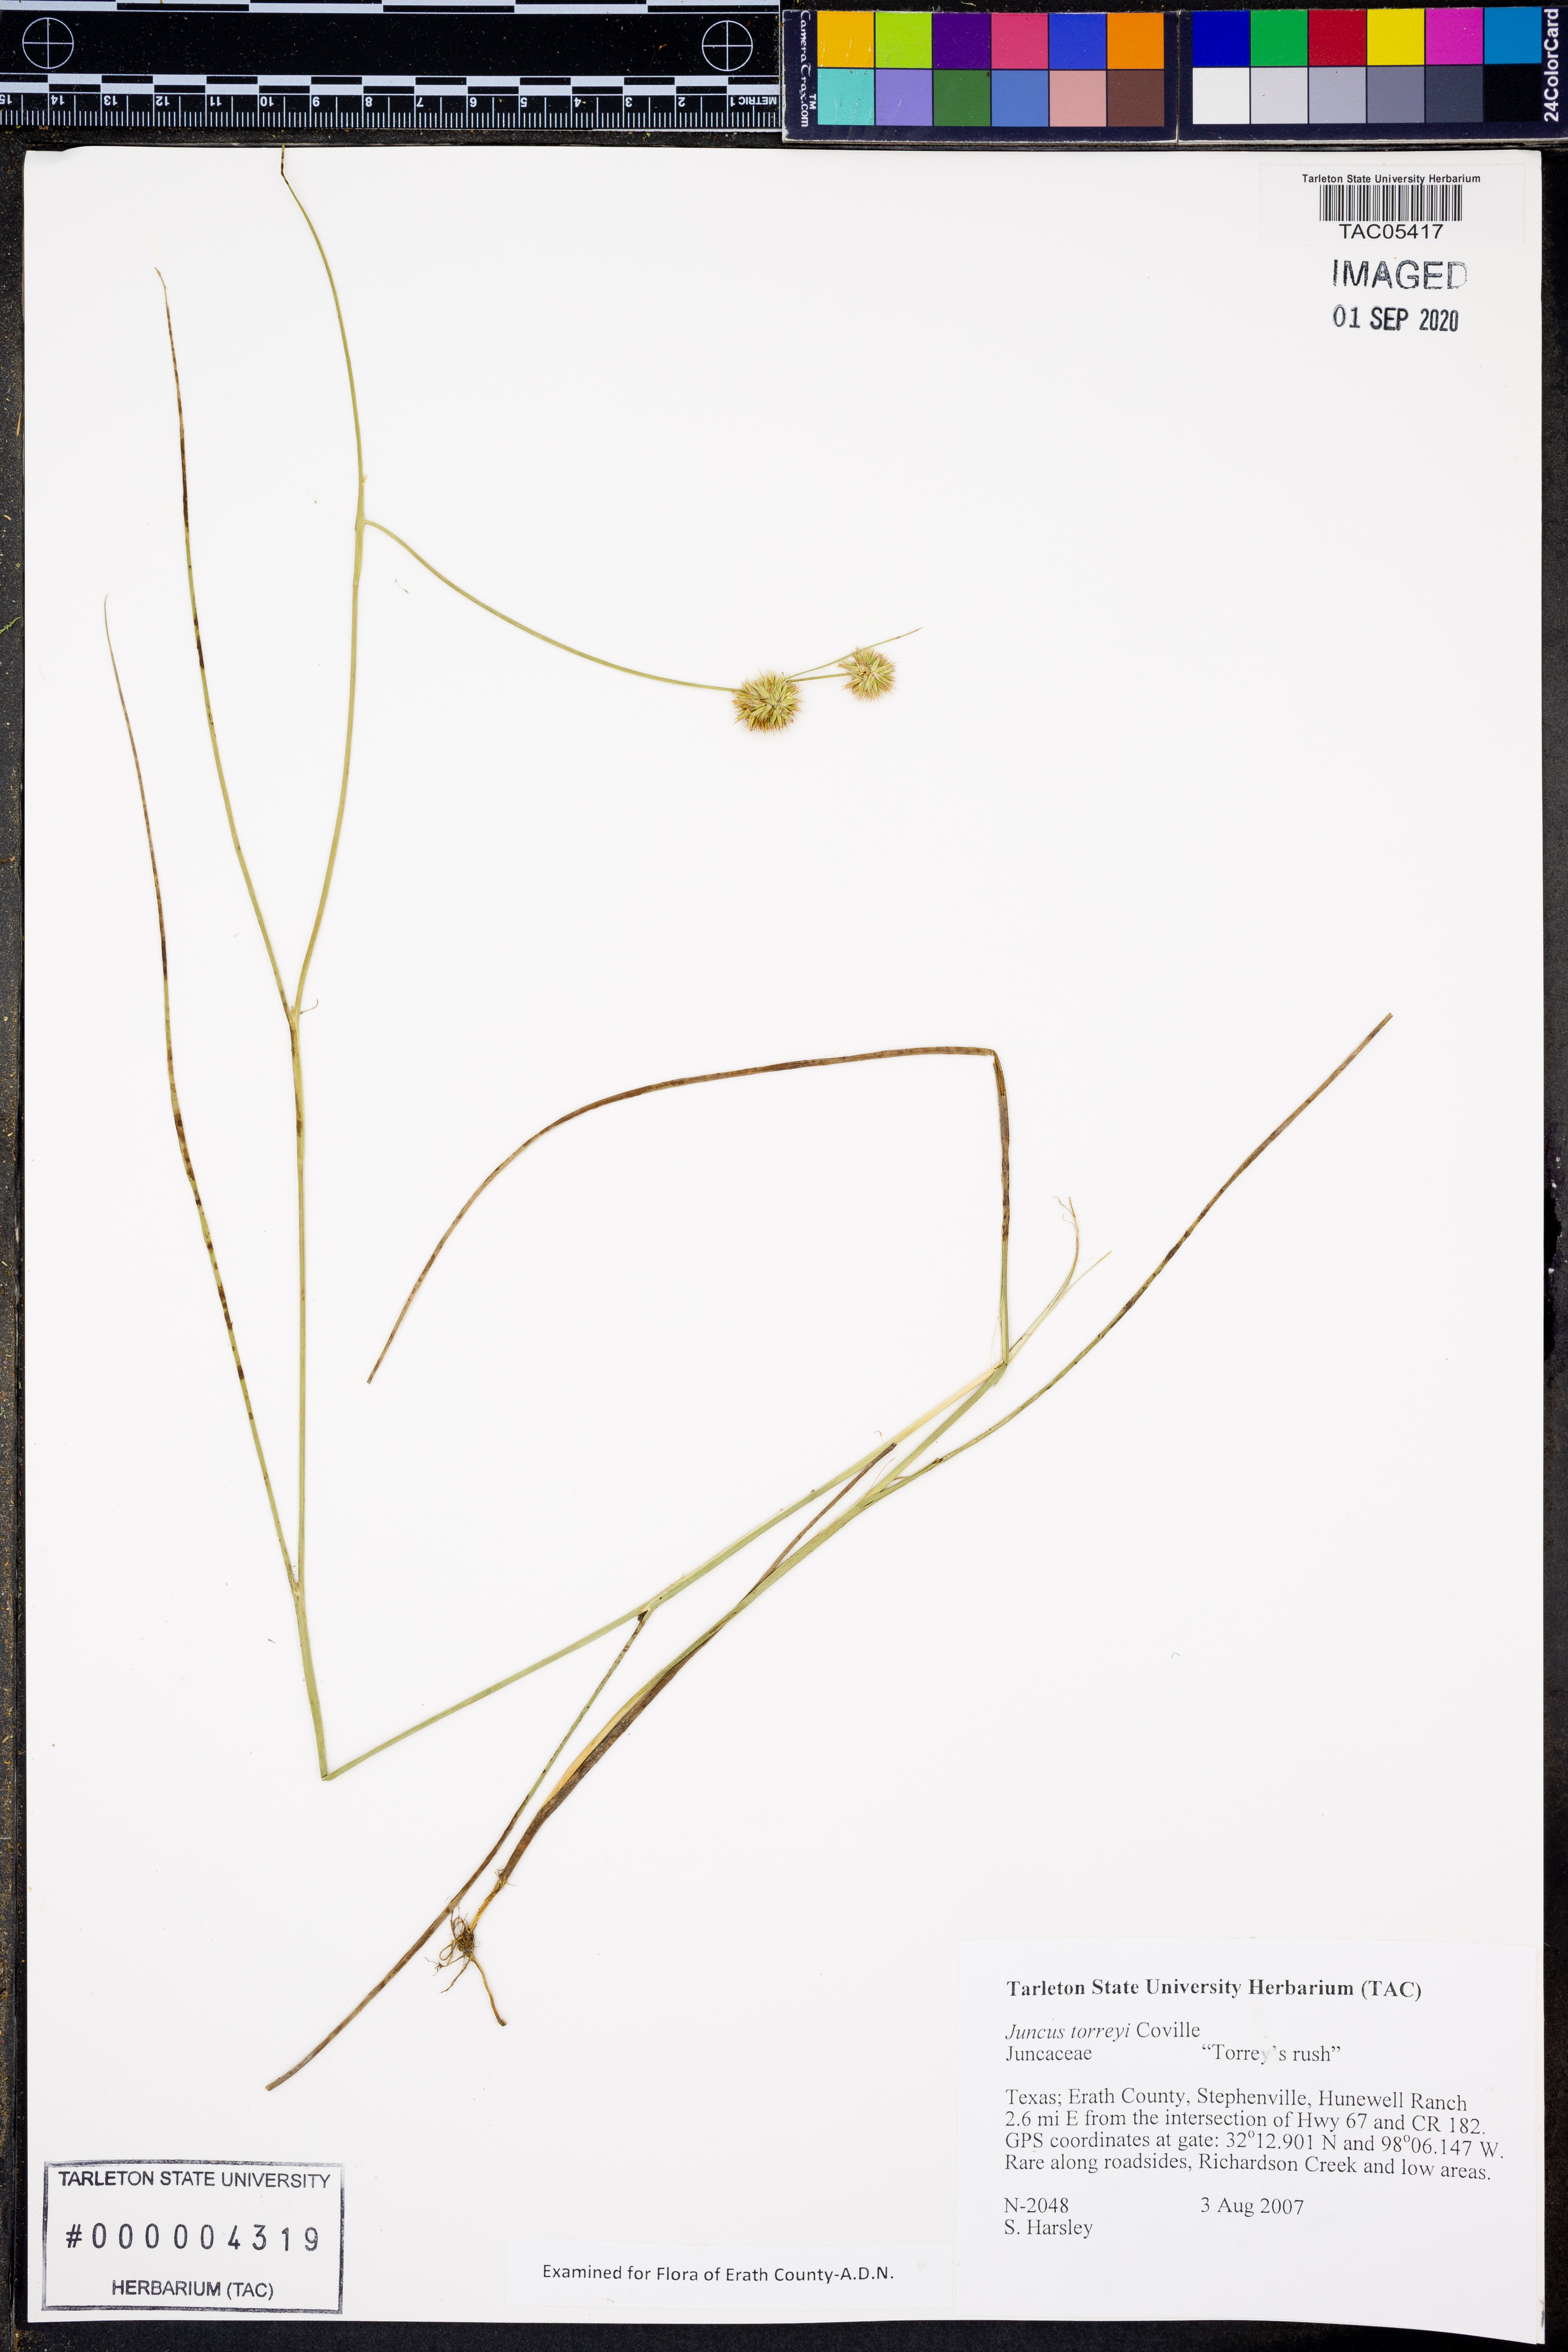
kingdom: Plantae
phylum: Tracheophyta
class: Liliopsida
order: Poales
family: Juncaceae
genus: Juncus
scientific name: Juncus torreyi
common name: Torrey's rush
